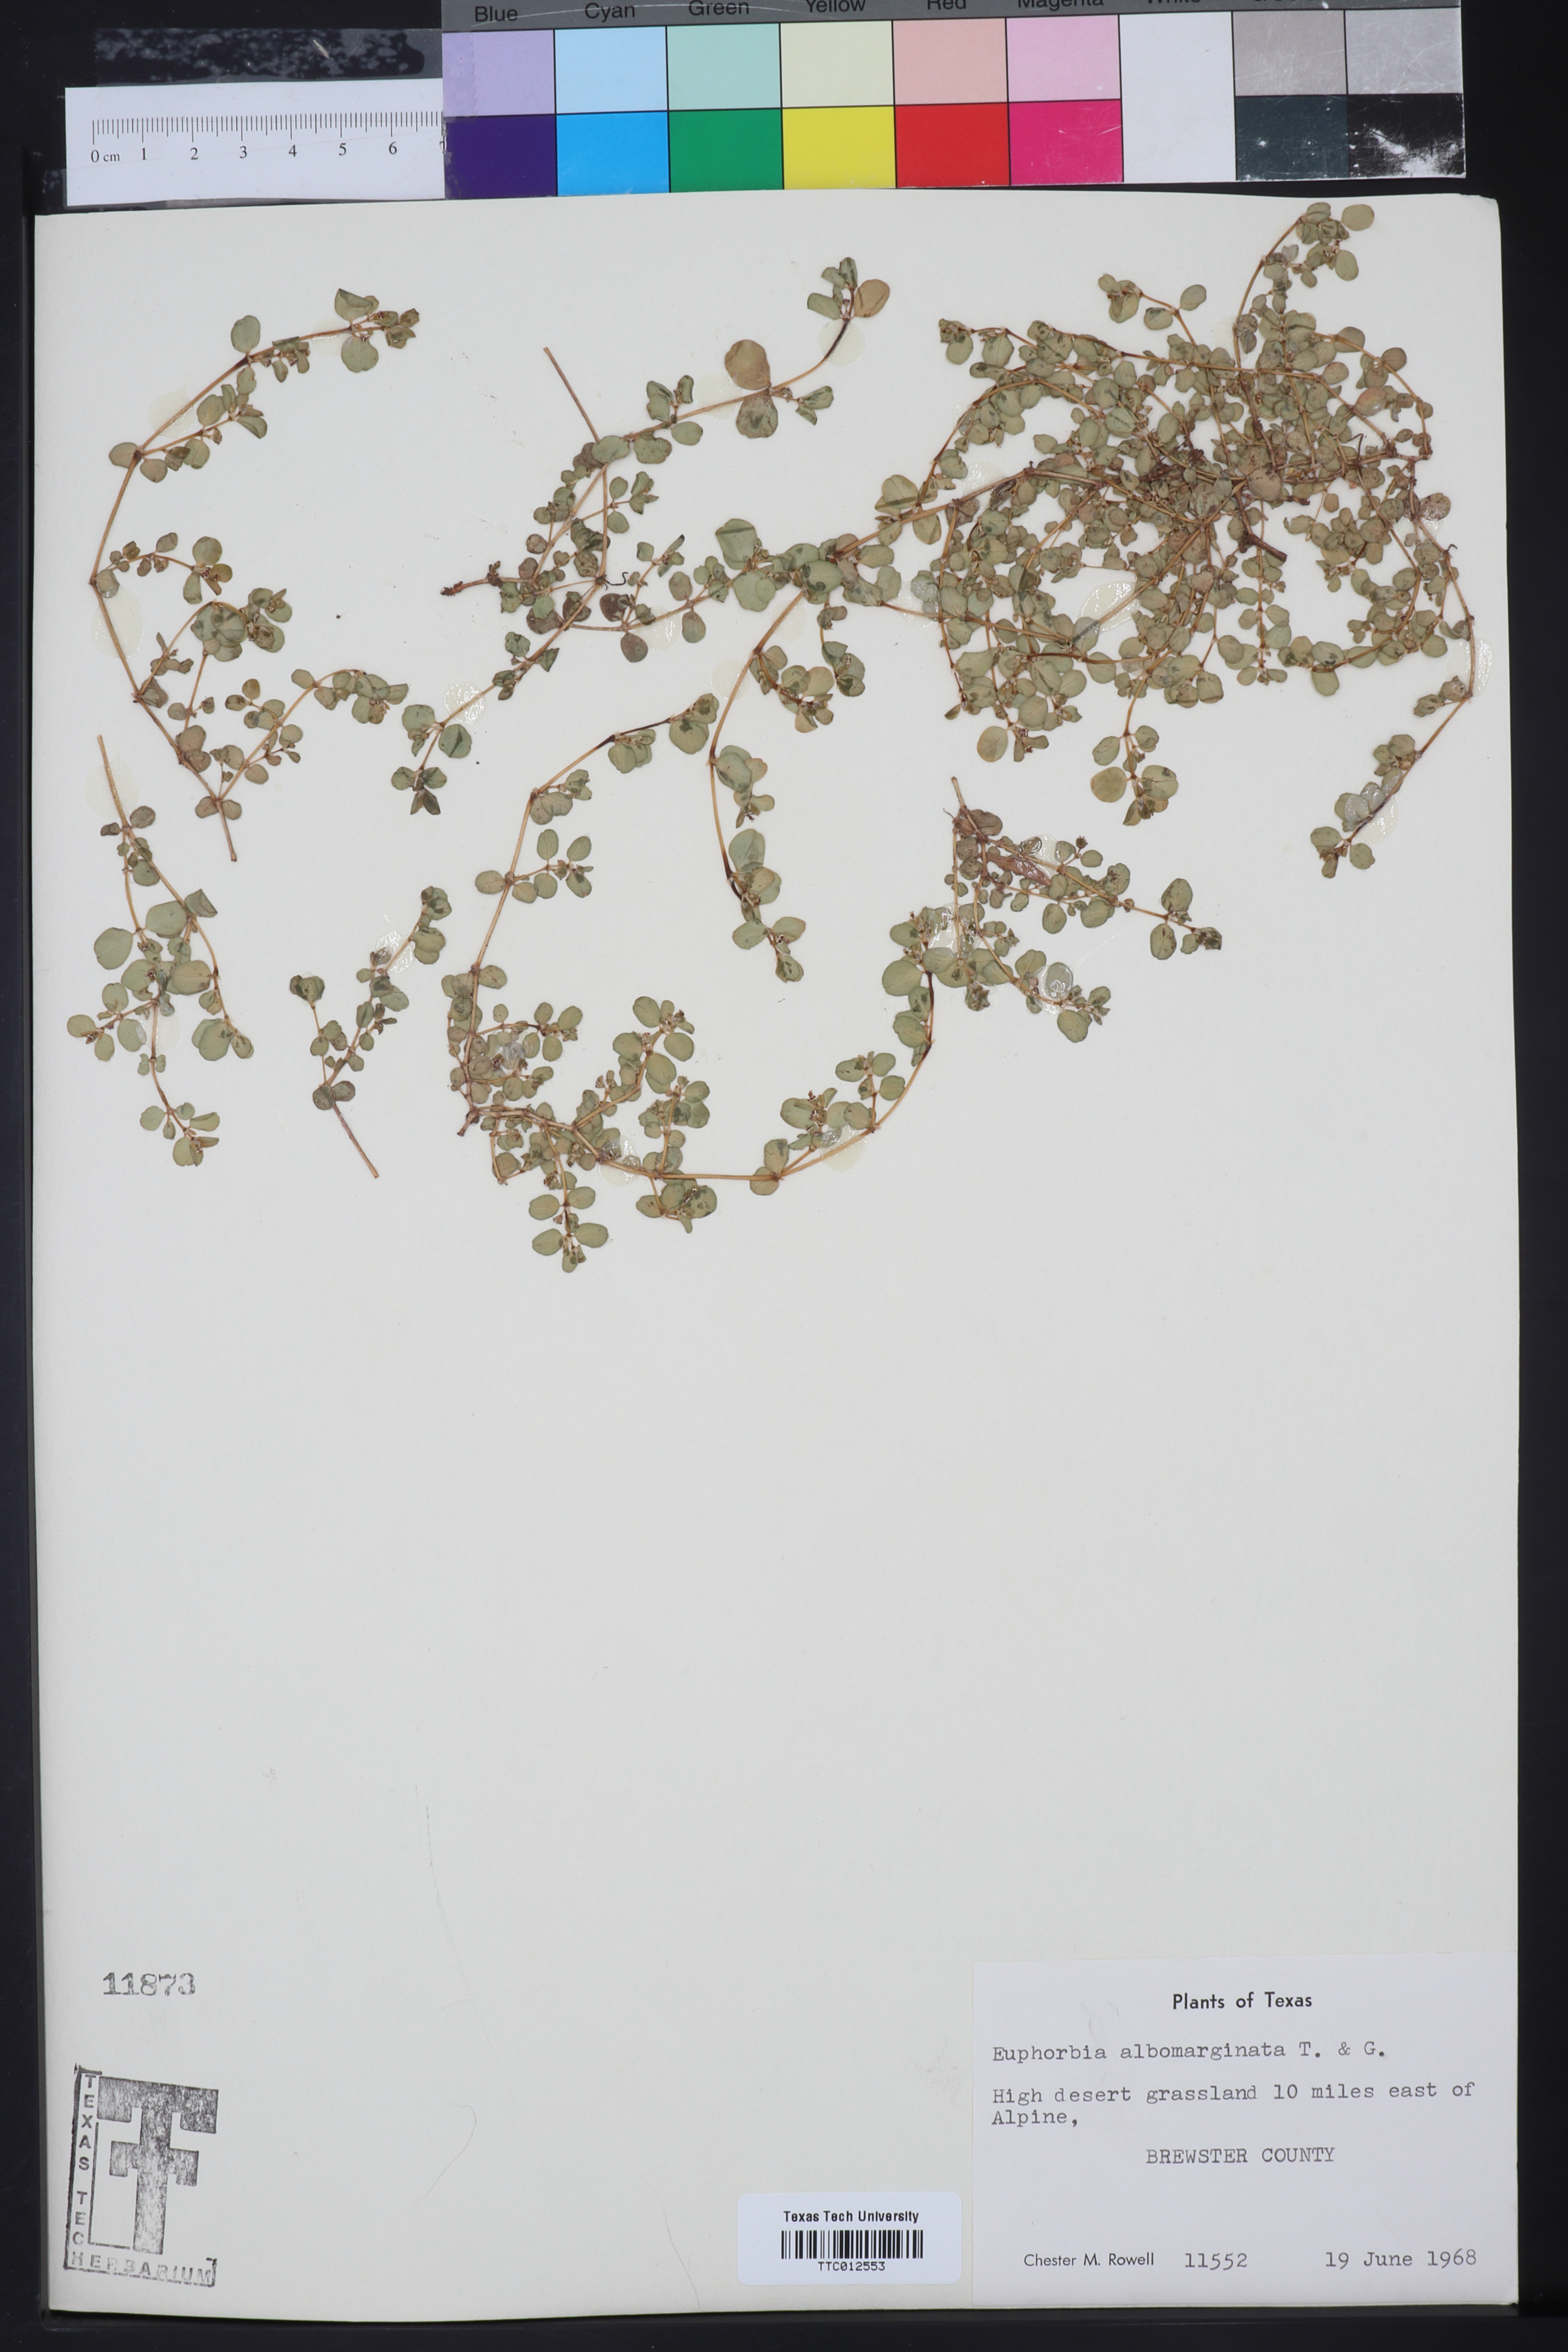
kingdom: Plantae
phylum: Tracheophyta
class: Magnoliopsida
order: Malpighiales
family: Euphorbiaceae
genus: Euphorbia
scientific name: Euphorbia albomarginata
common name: Whitemargin sandmat
